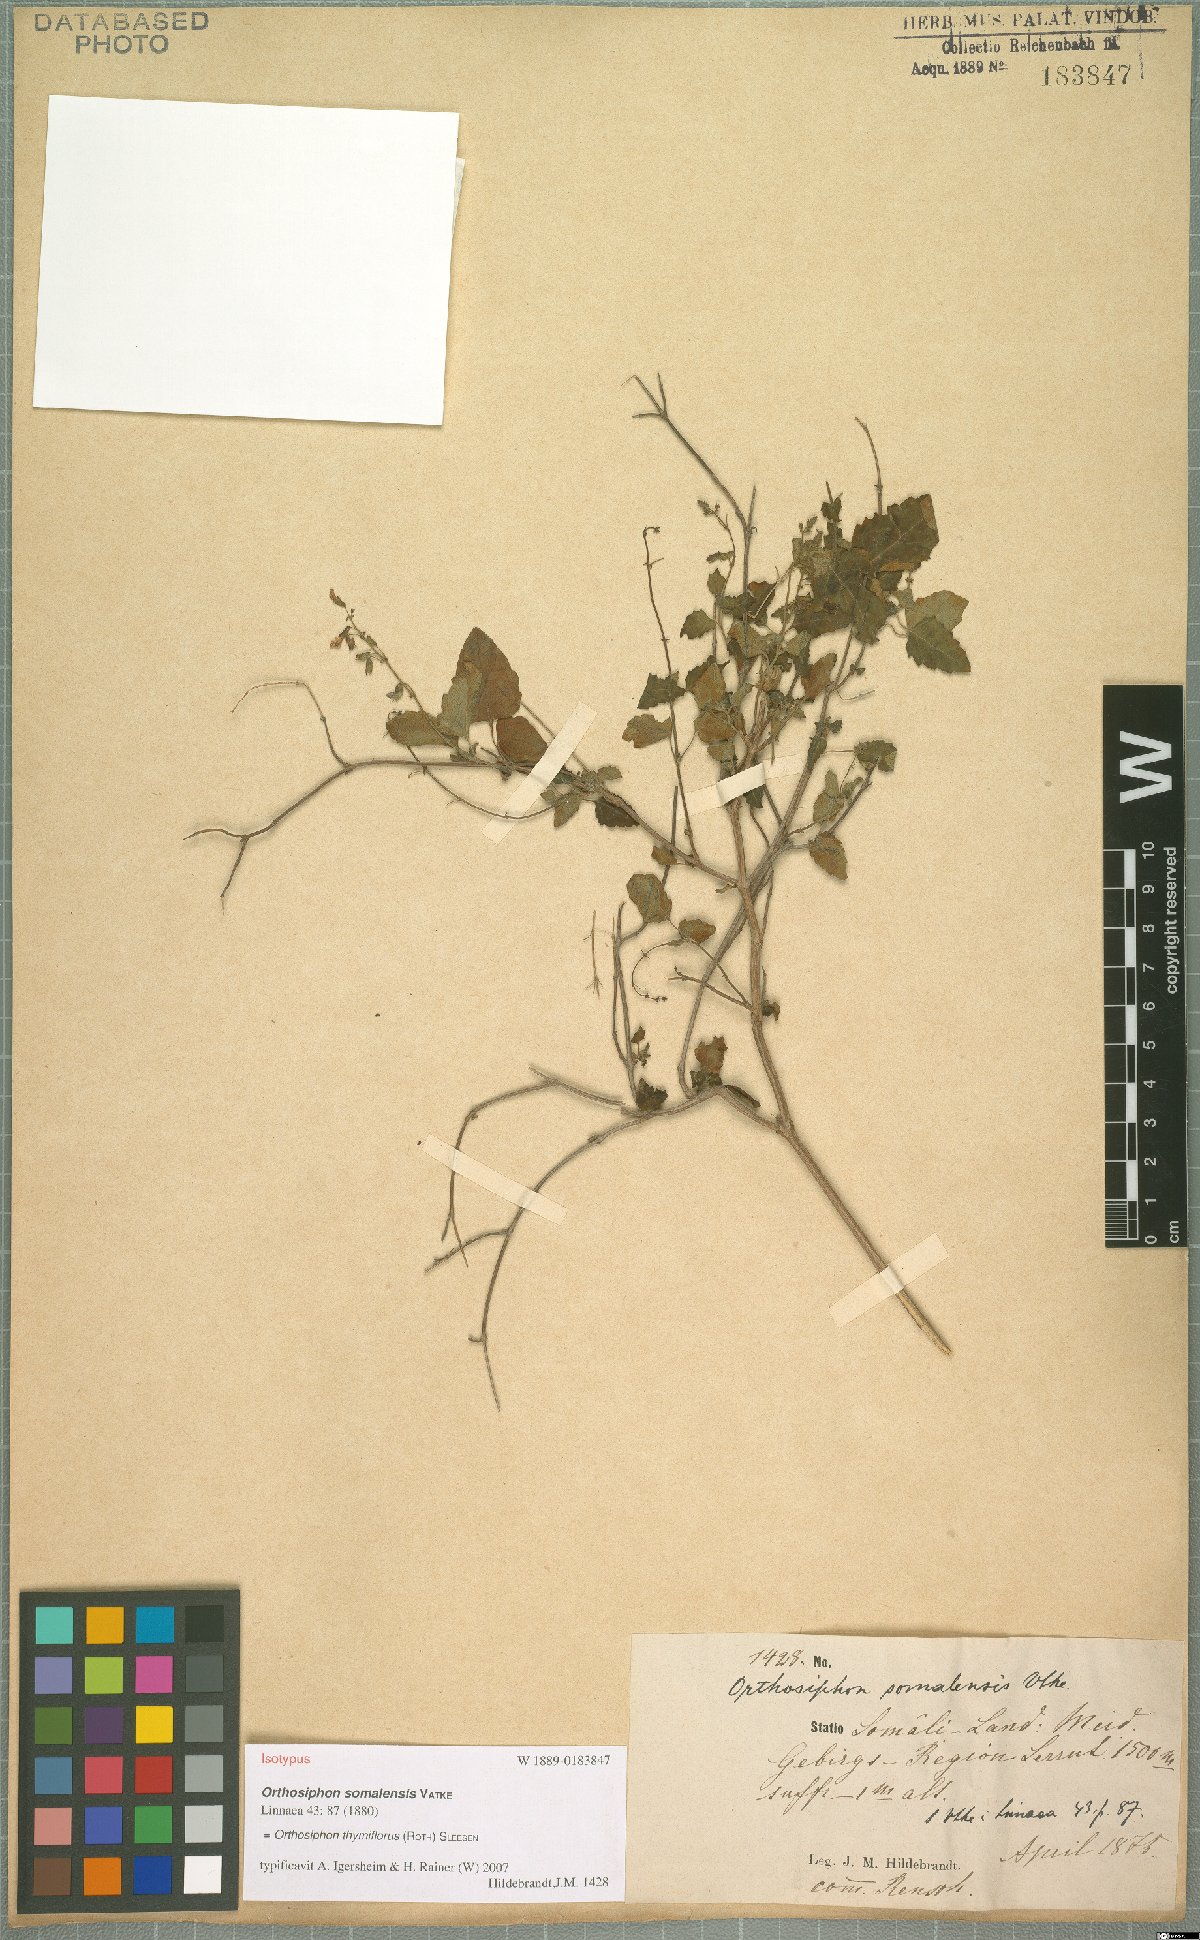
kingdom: Plantae
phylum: Tracheophyta
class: Magnoliopsida
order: Lamiales
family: Lamiaceae
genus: Orthosiphon
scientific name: Orthosiphon thymiflorus
